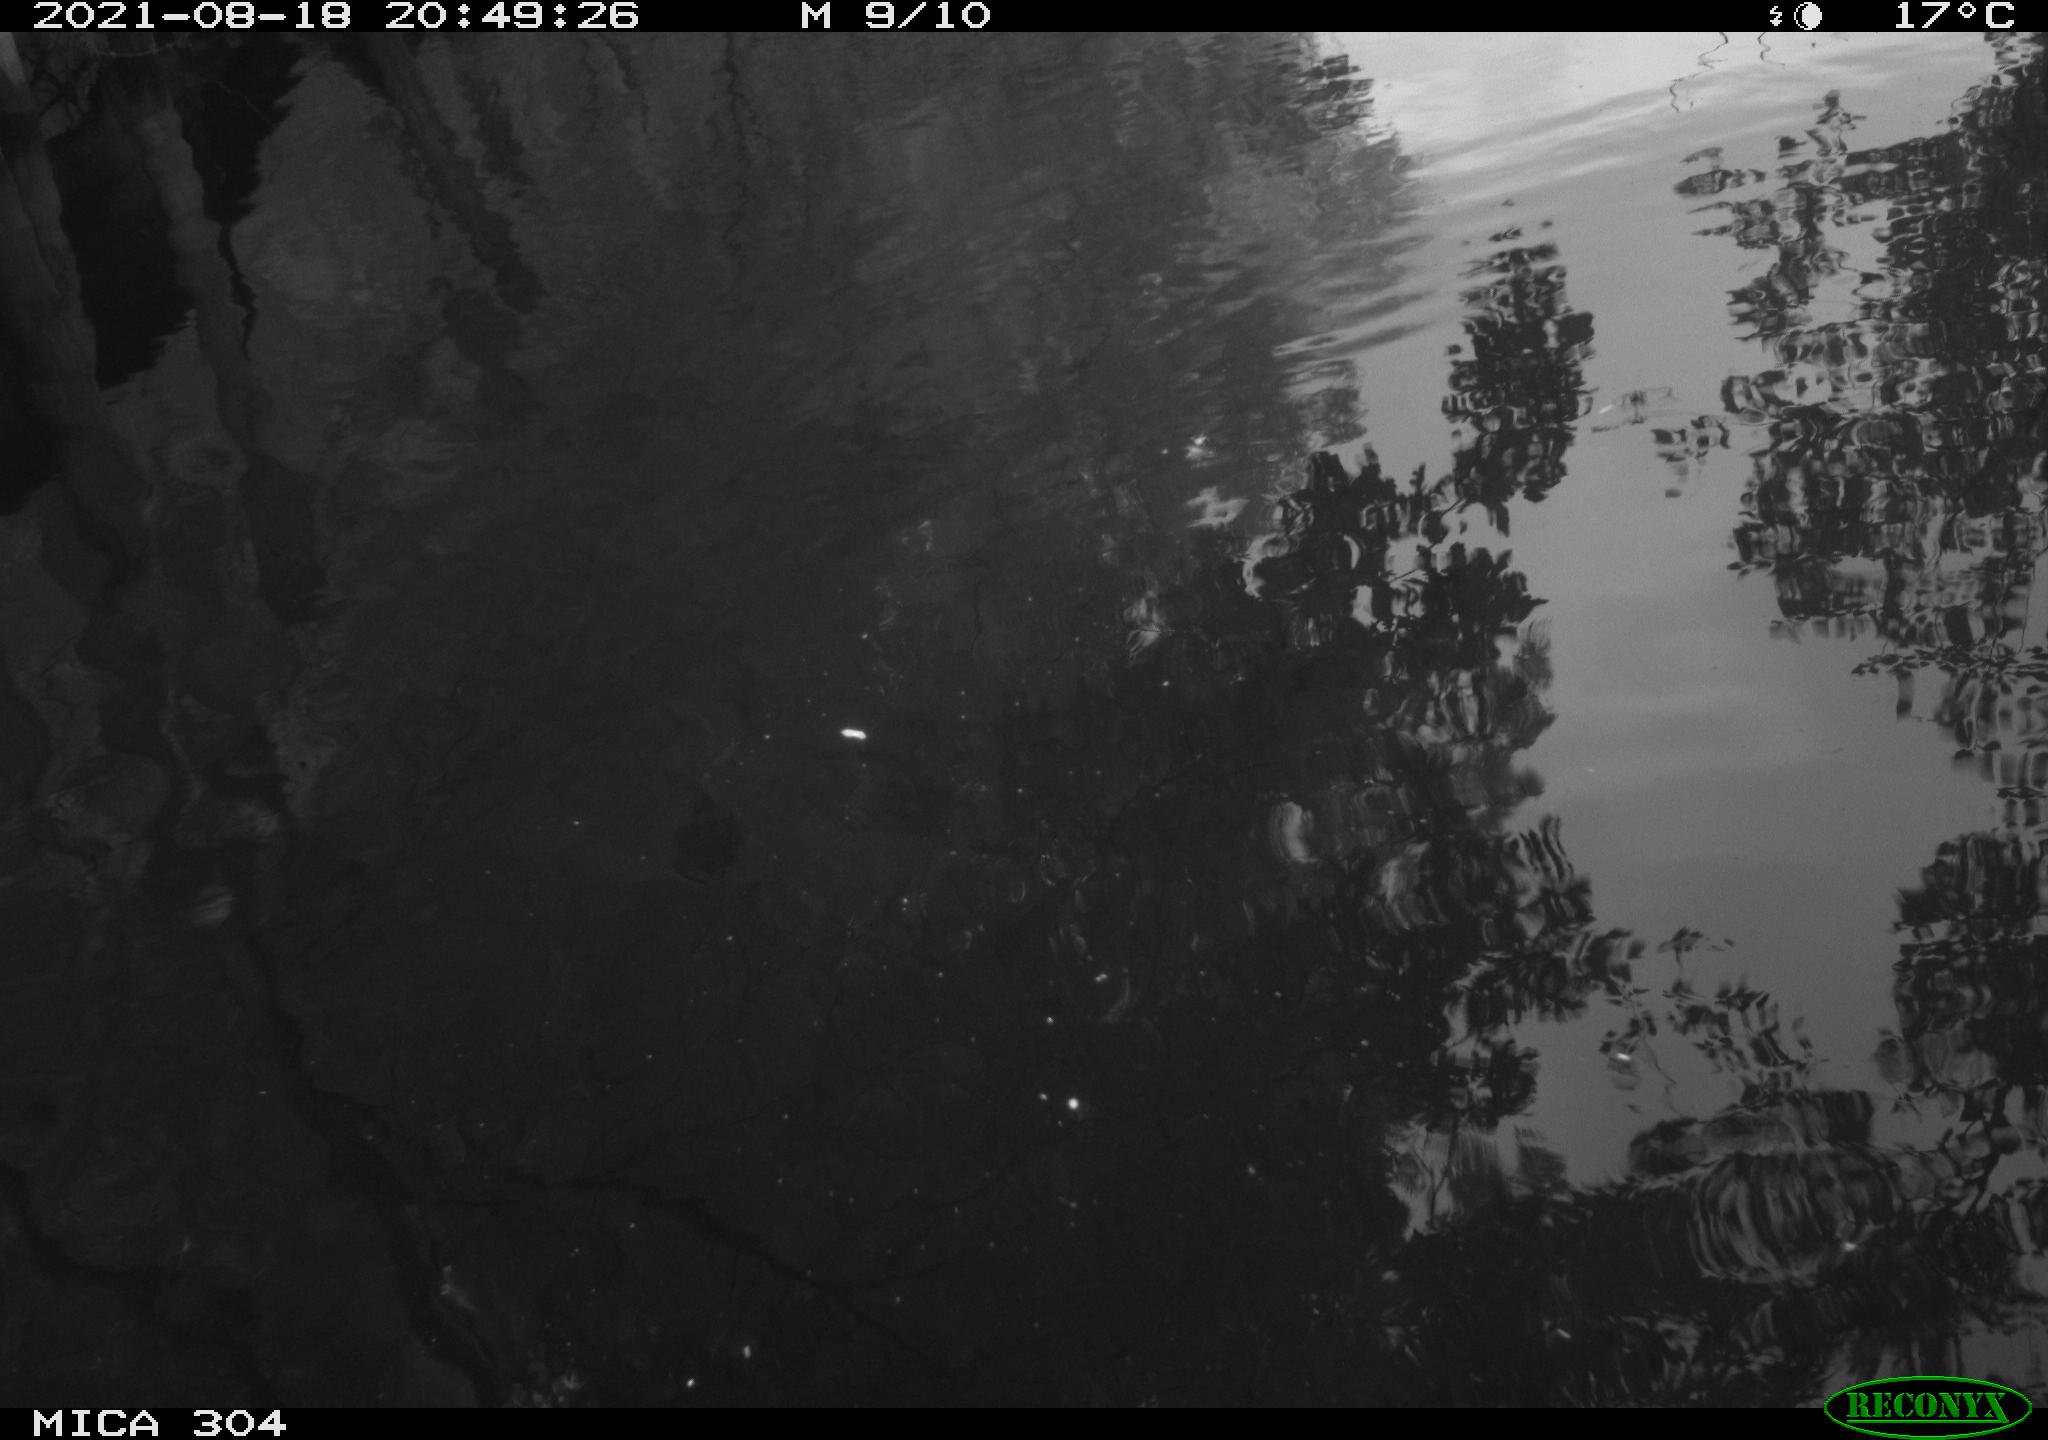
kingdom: Animalia
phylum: Chordata
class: Aves
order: Gruiformes
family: Rallidae
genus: Gallinula
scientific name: Gallinula chloropus
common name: Common moorhen
